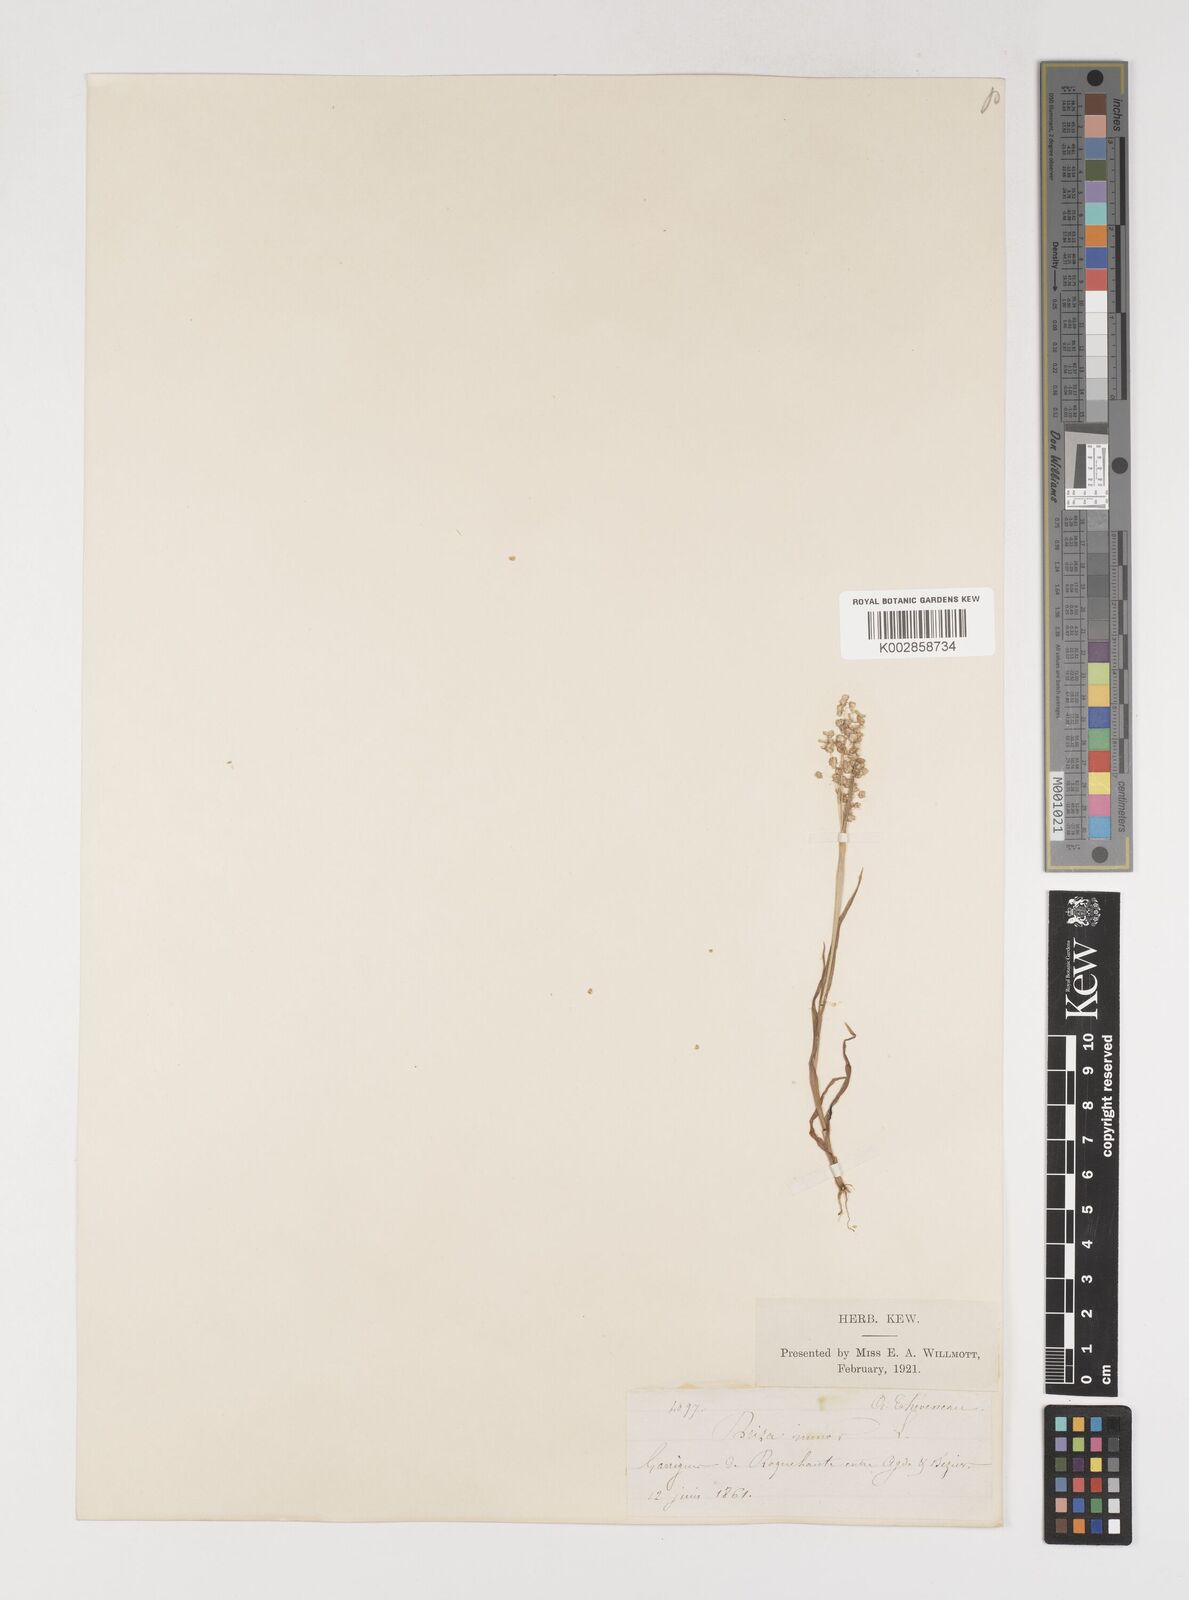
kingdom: Plantae
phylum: Tracheophyta
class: Liliopsida
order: Poales
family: Poaceae
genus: Briza
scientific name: Briza minor
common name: Lesser quaking-grass
